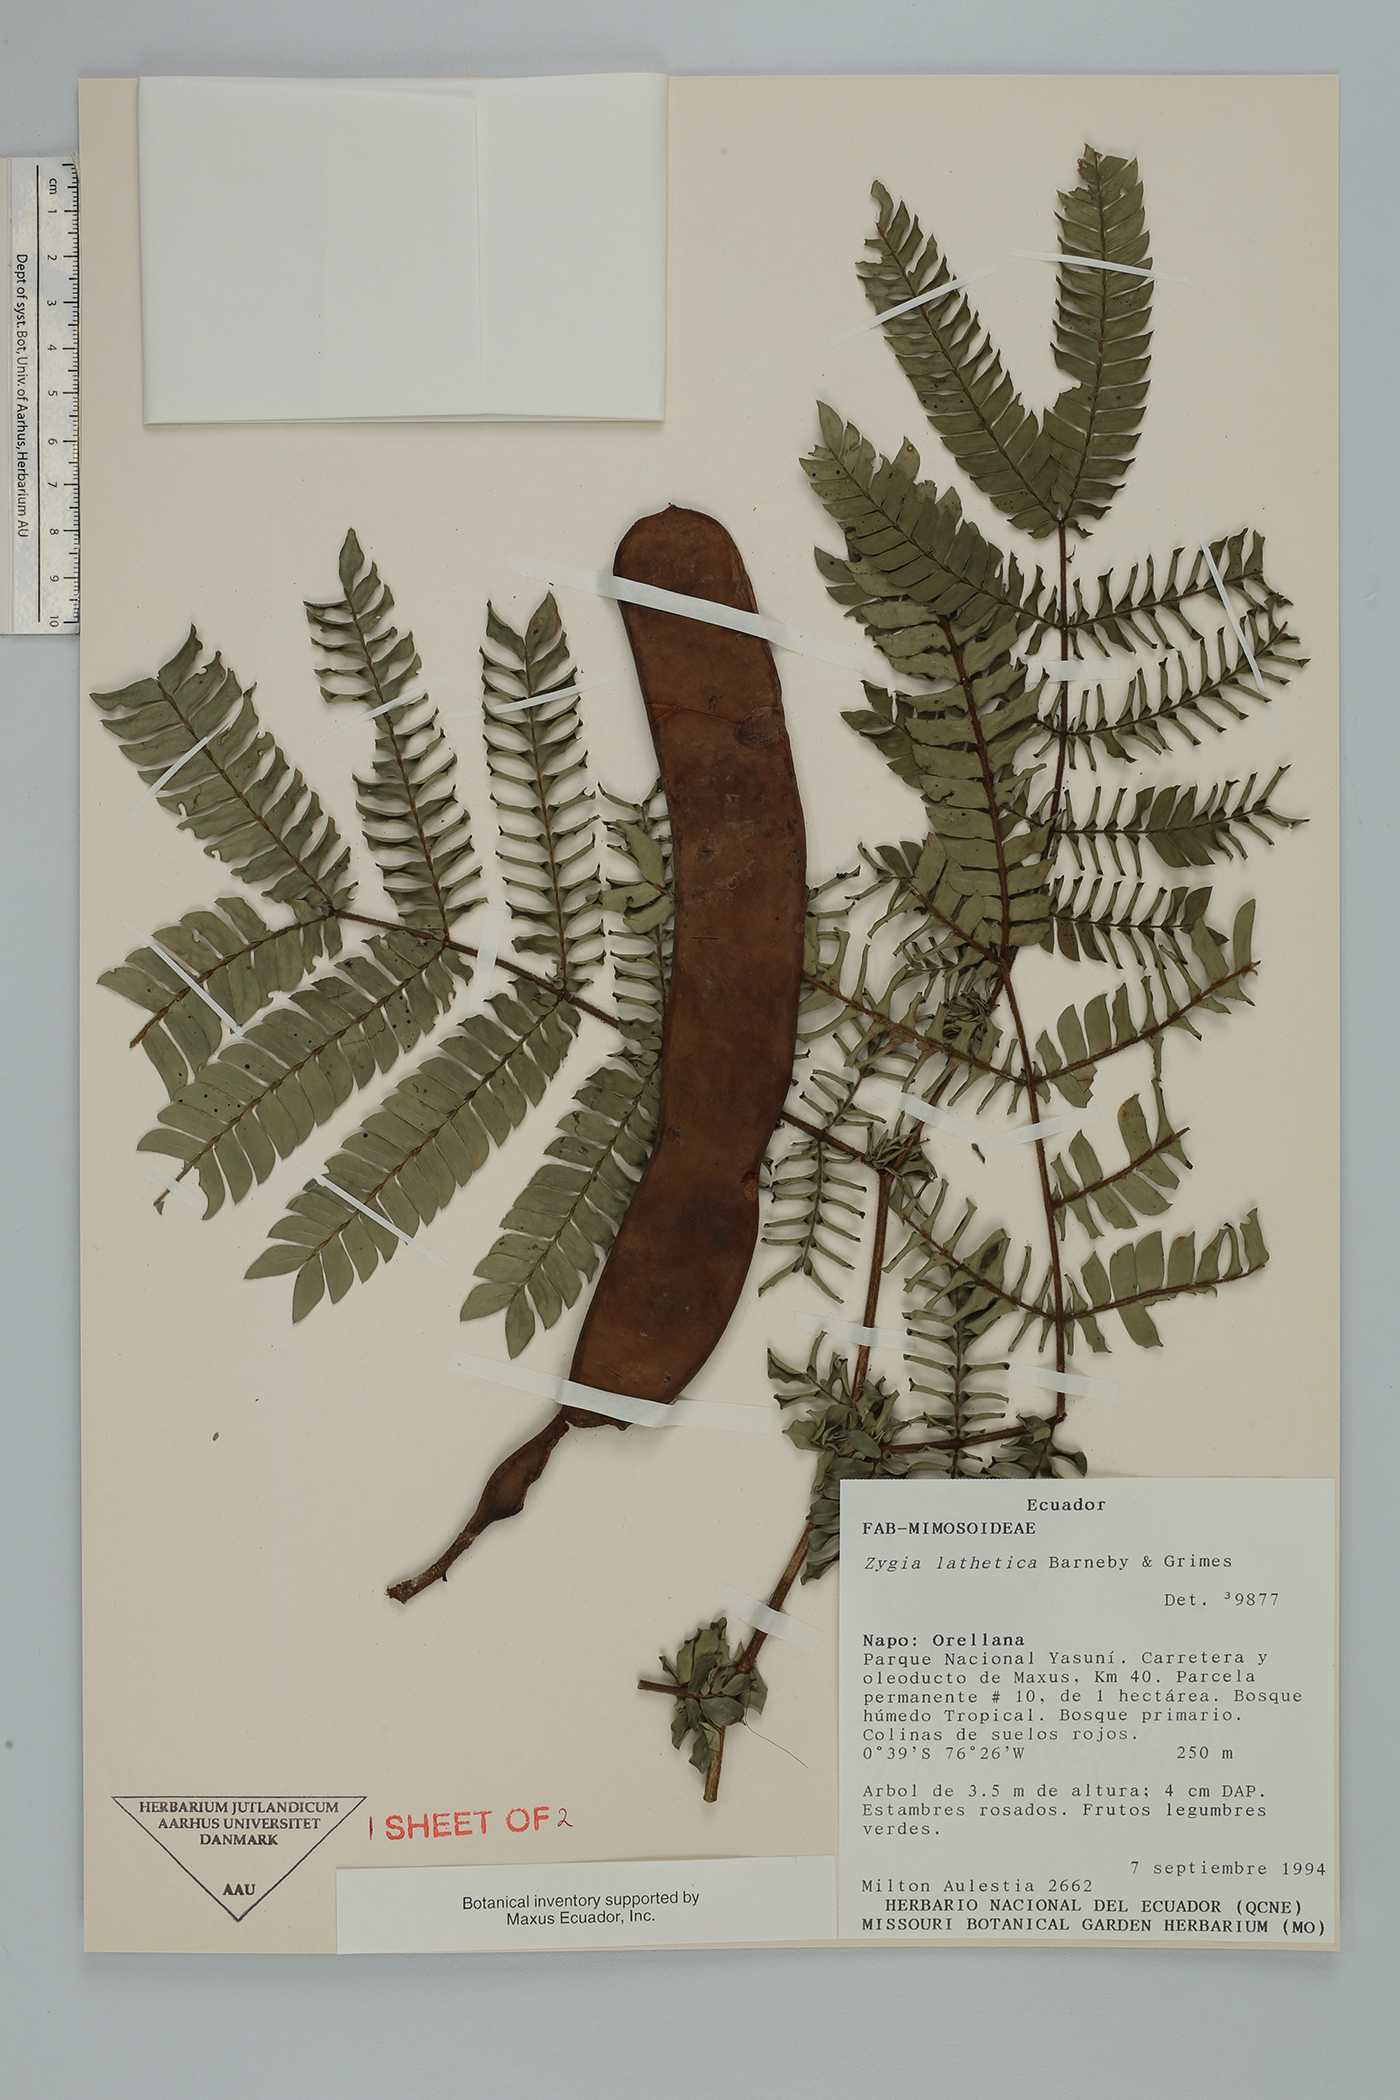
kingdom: Plantae
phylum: Tracheophyta
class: Magnoliopsida
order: Fabales
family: Fabaceae
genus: Zygia
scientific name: Zygia lathetica
